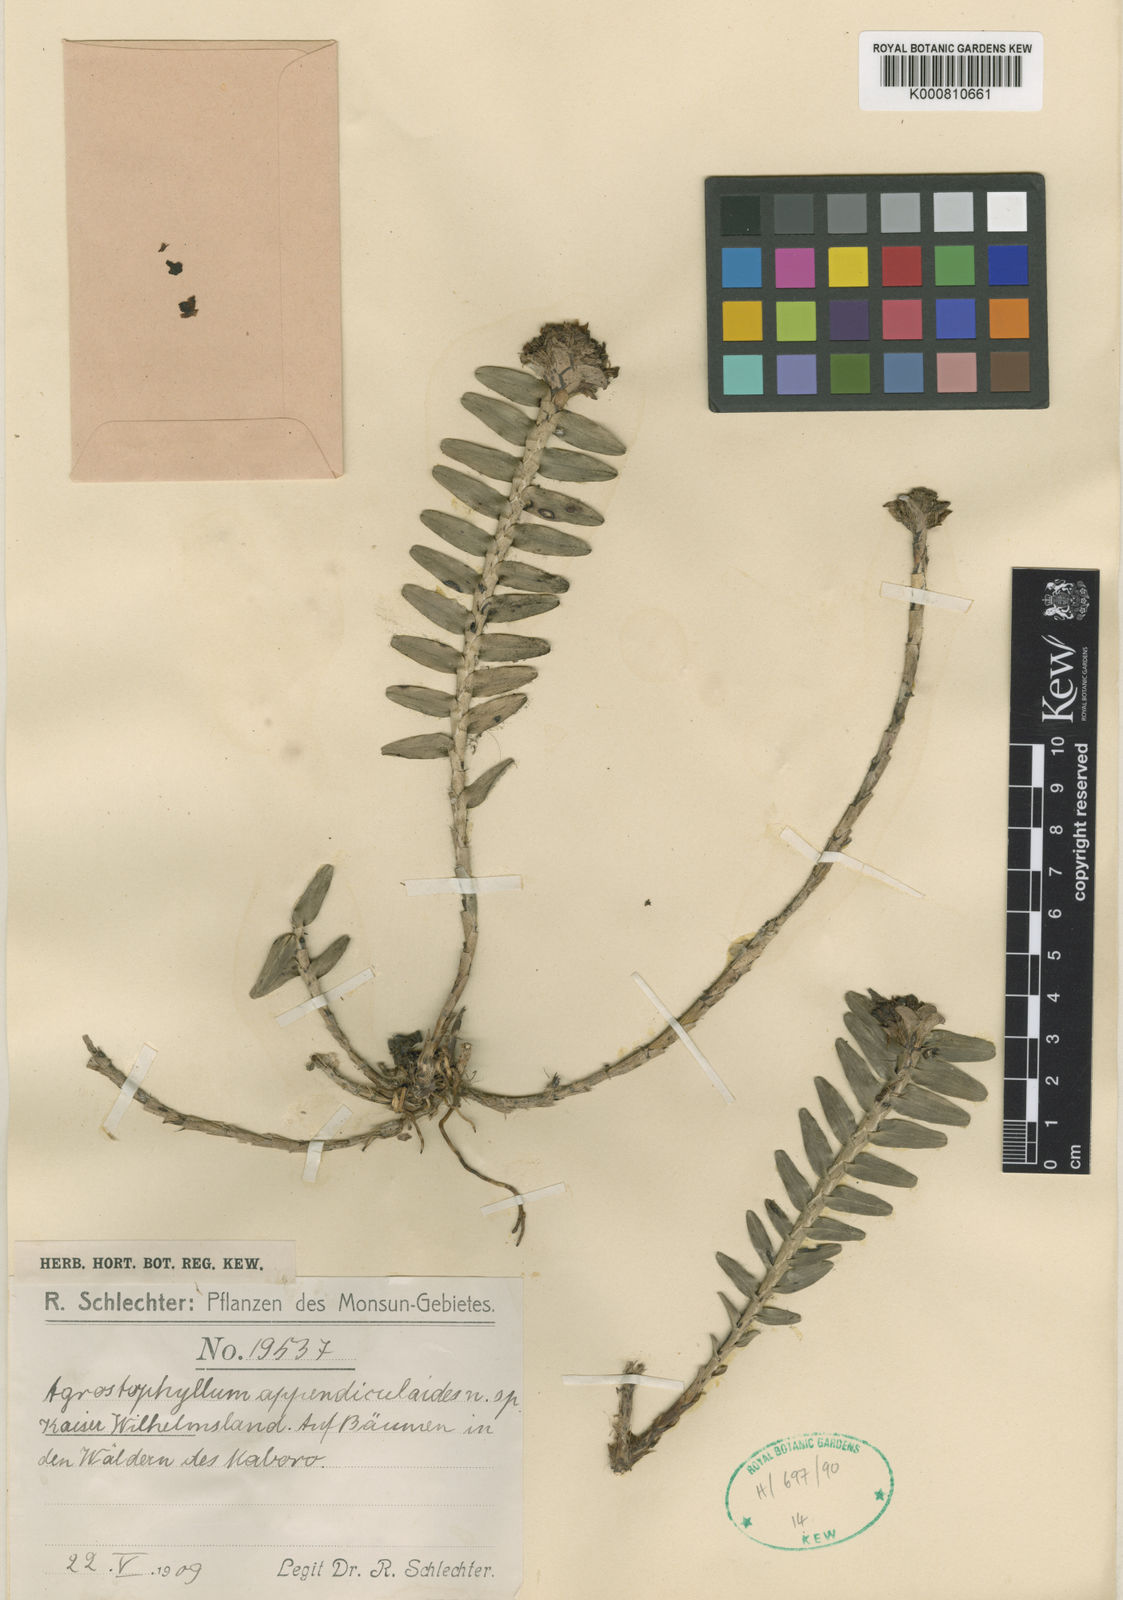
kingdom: Plantae
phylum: Tracheophyta
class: Liliopsida
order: Asparagales
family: Orchidaceae
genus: Agrostophyllum
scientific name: Agrostophyllum appendiculoides
